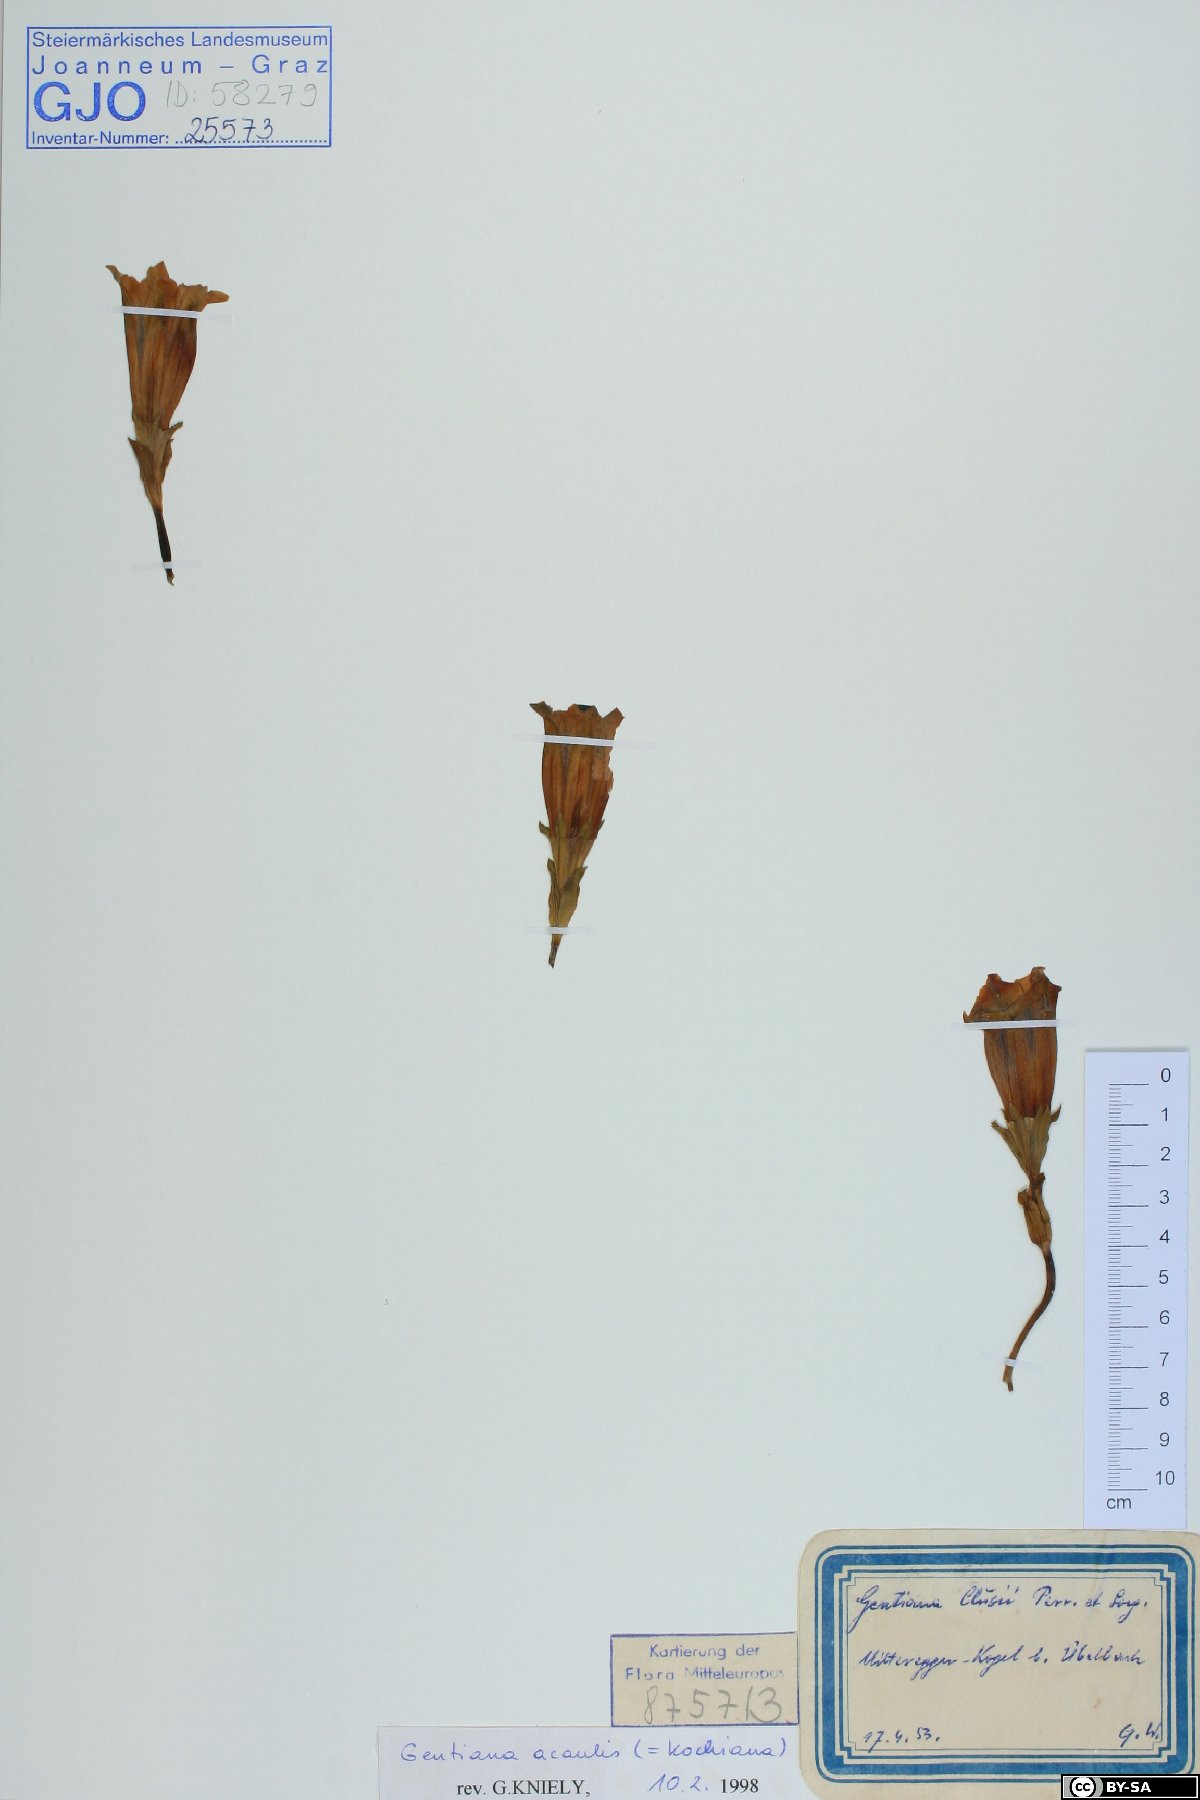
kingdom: Plantae
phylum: Tracheophyta
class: Magnoliopsida
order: Gentianales
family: Gentianaceae
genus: Gentiana
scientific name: Gentiana acaulis
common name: Trumpet gentian
